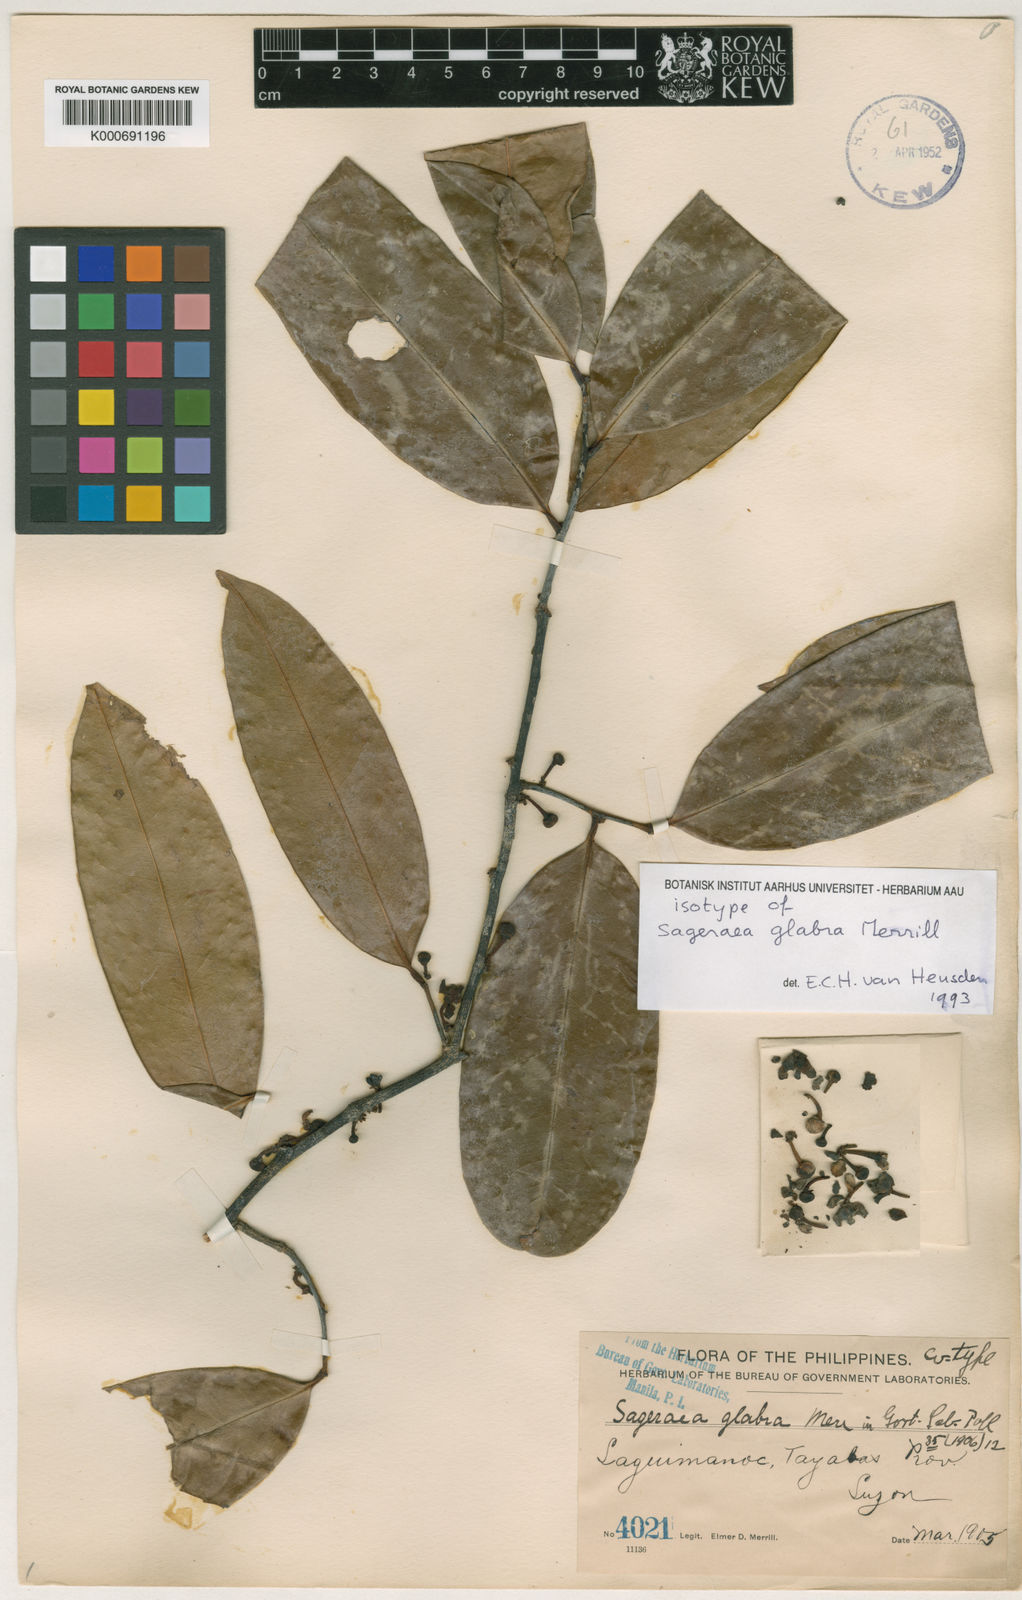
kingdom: Plantae
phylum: Tracheophyta
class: Magnoliopsida
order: Magnoliales
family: Annonaceae
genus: Sageraea
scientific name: Sageraea lanceolata
